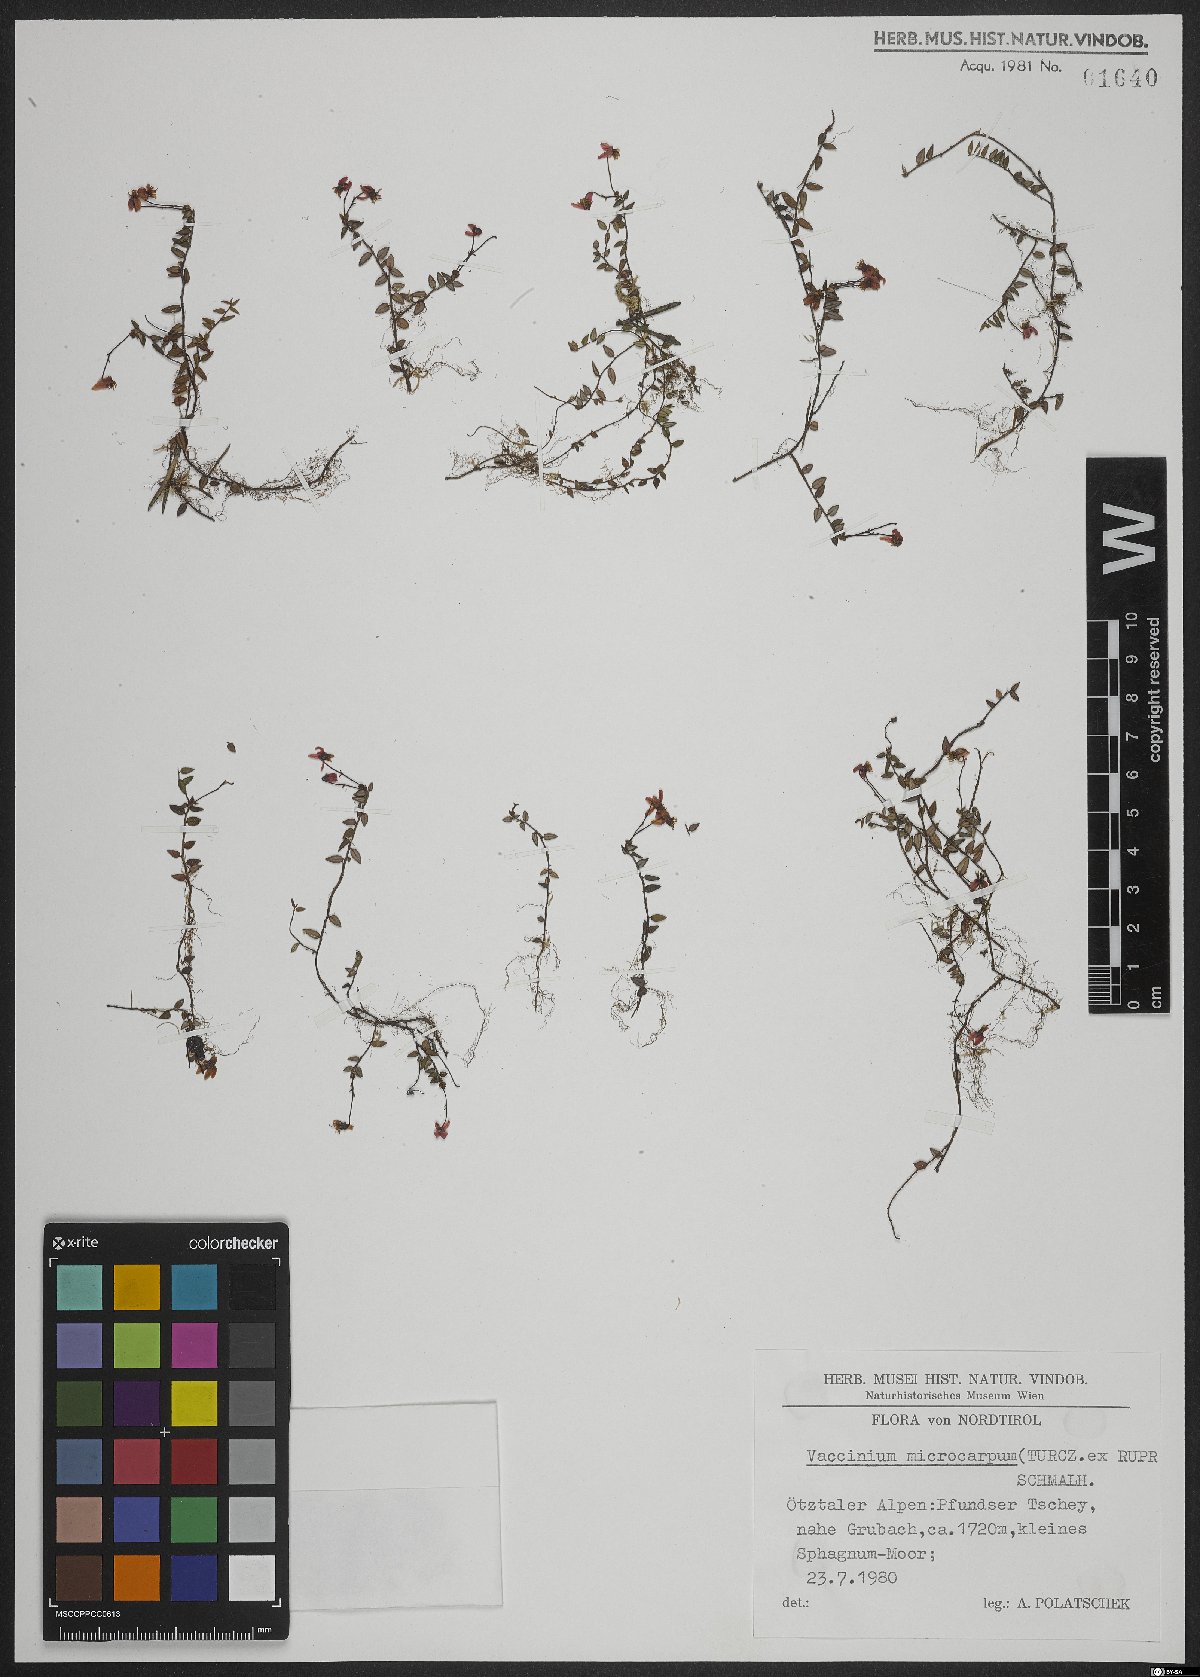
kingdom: Plantae
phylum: Tracheophyta
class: Magnoliopsida
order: Ericales
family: Ericaceae
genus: Vaccinium
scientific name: Vaccinium microcarpum
